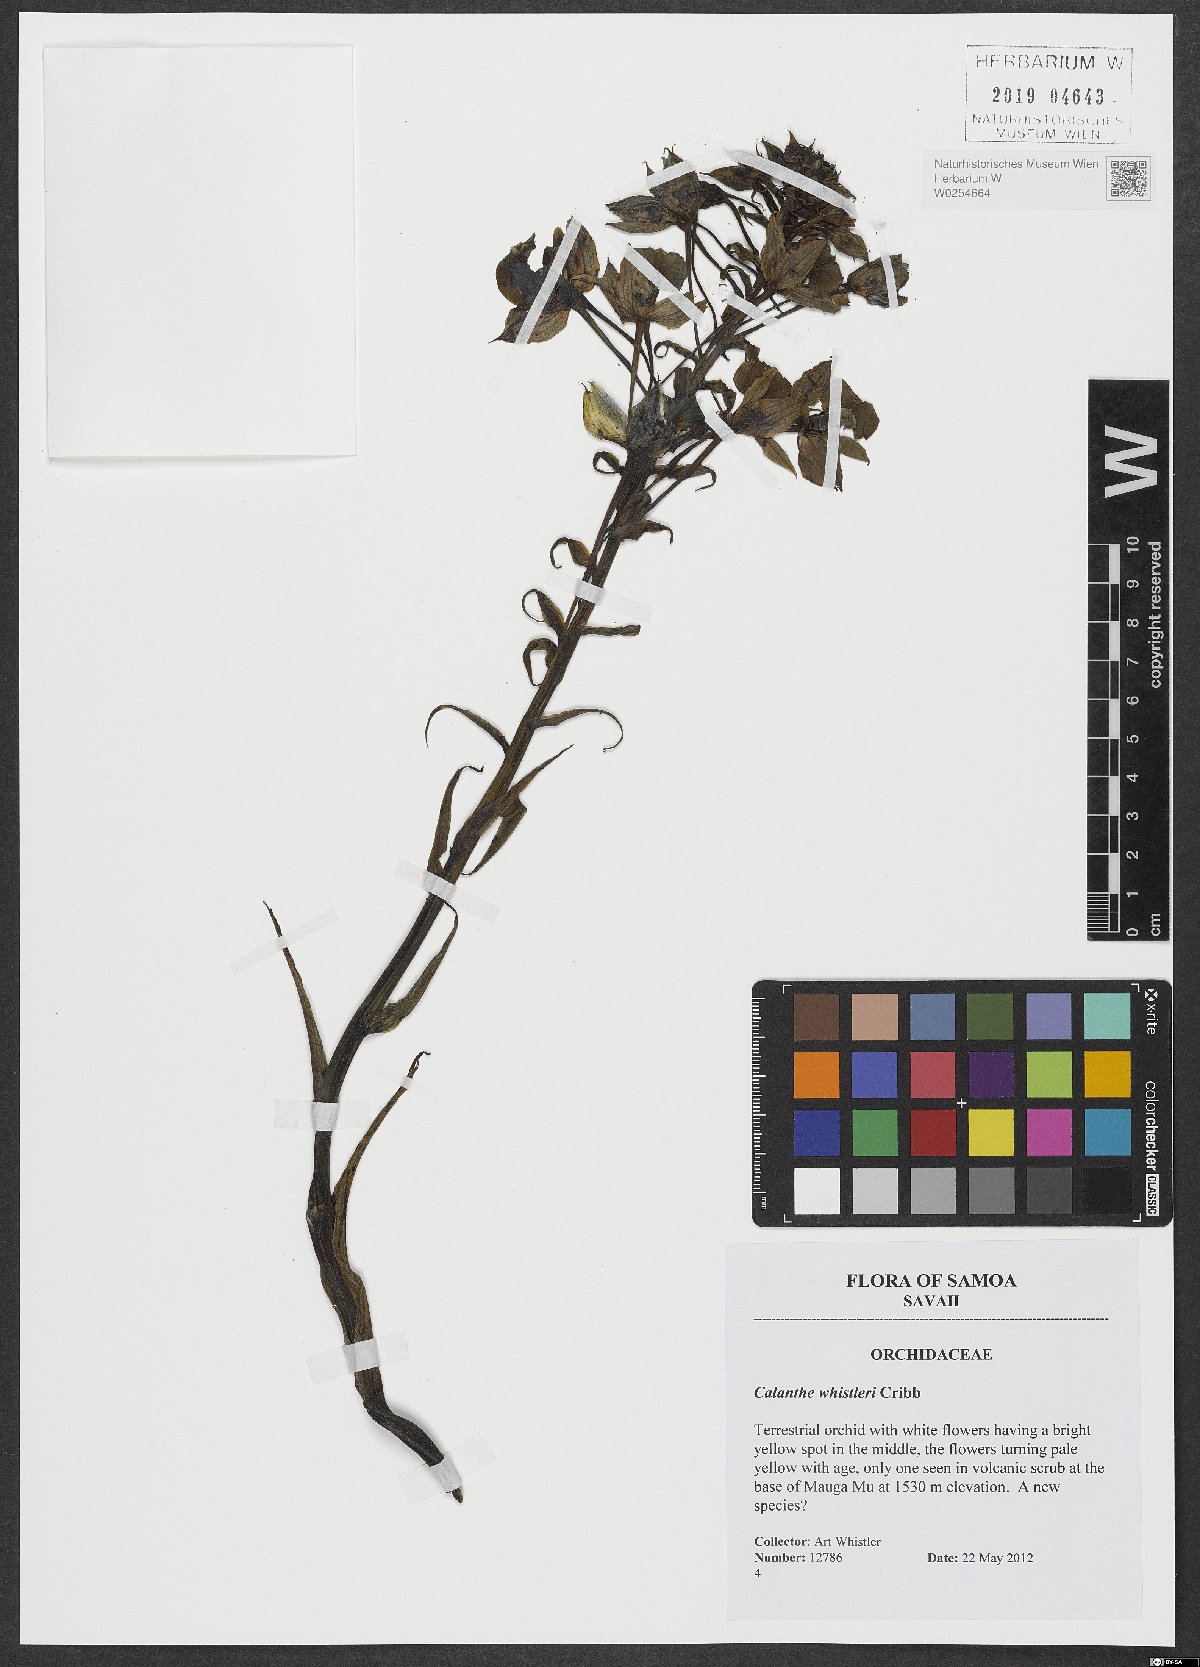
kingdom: Plantae
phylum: Tracheophyta
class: Liliopsida
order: Asparagales
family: Orchidaceae
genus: Calanthe
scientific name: Calanthe whistleri
